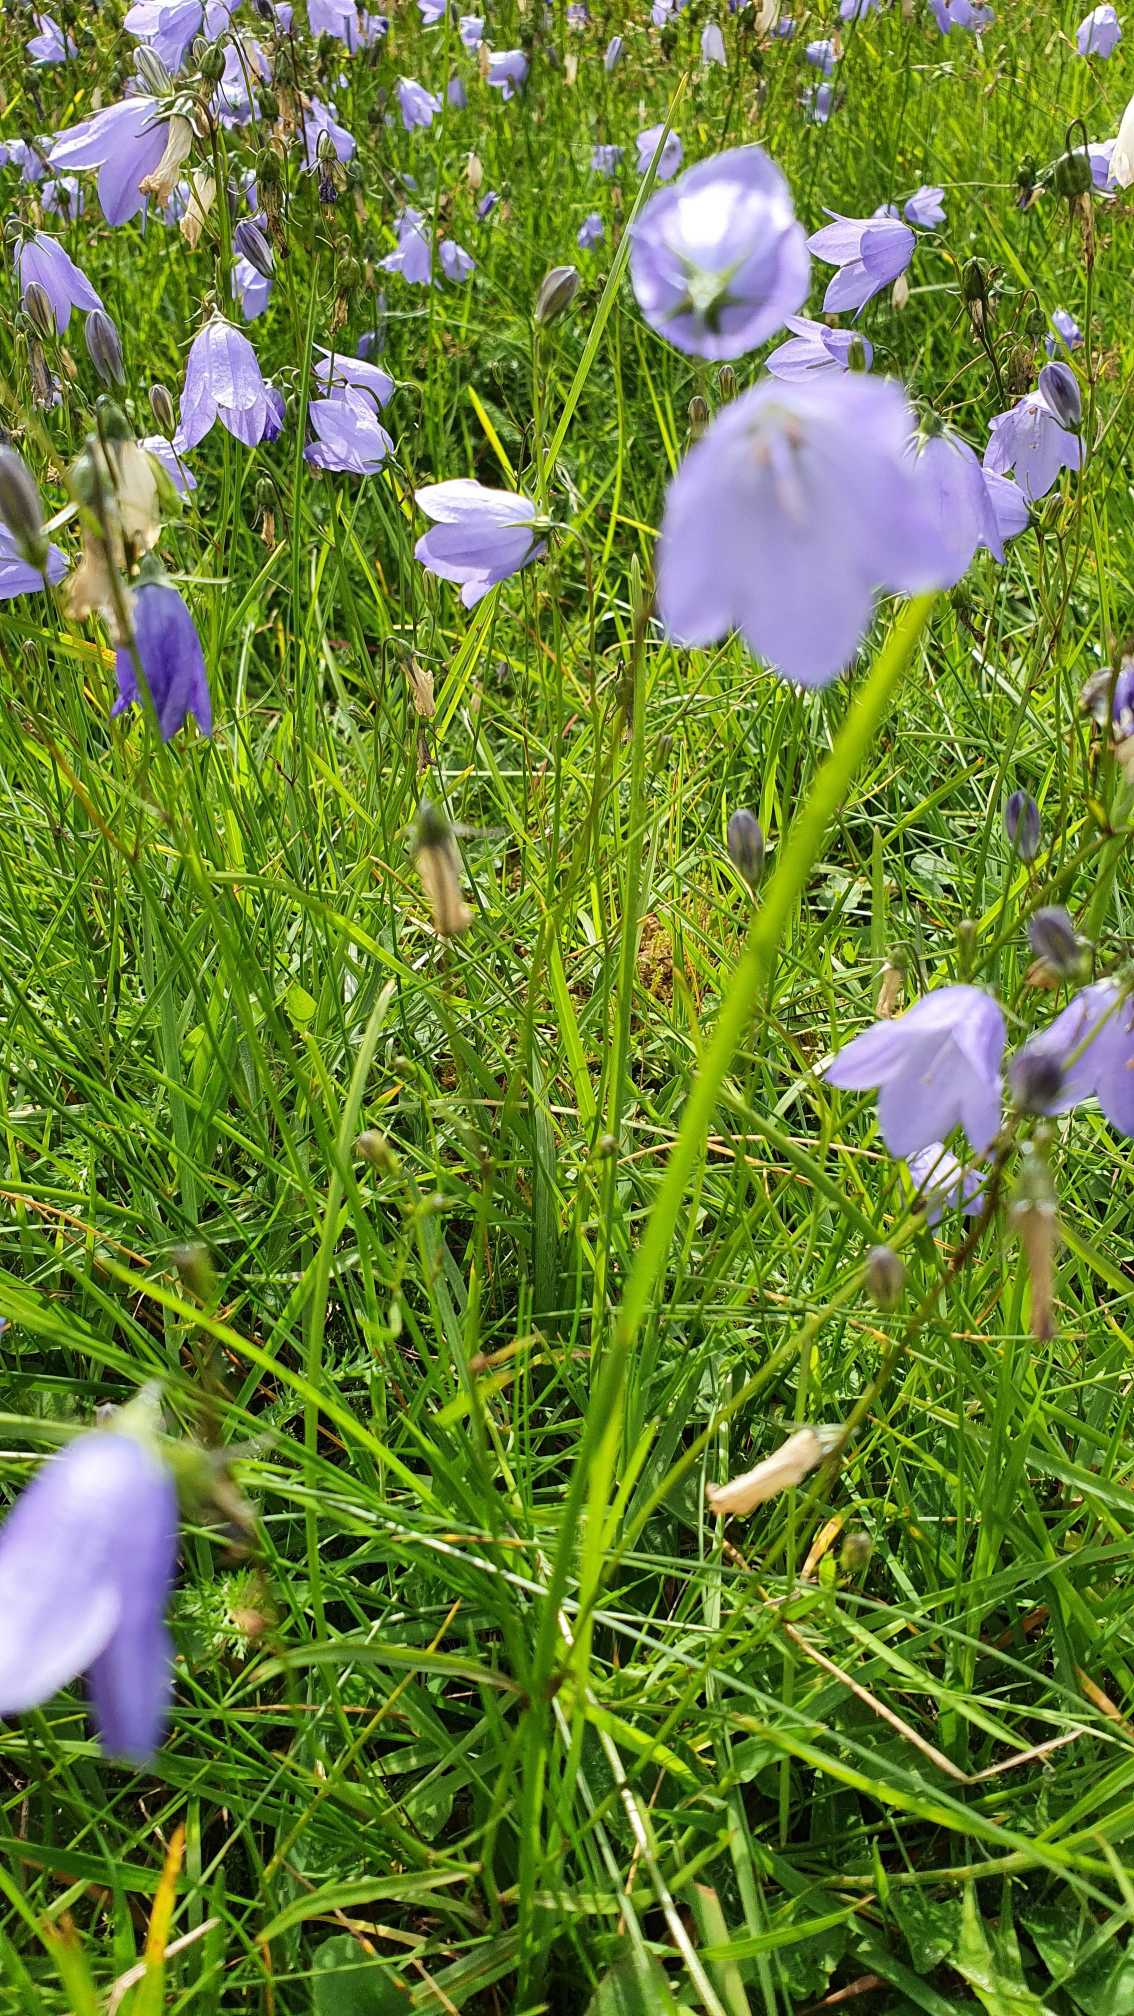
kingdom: Plantae
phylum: Tracheophyta
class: Magnoliopsida
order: Asterales
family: Campanulaceae
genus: Campanula
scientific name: Campanula rotundifolia
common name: Liden klokke
